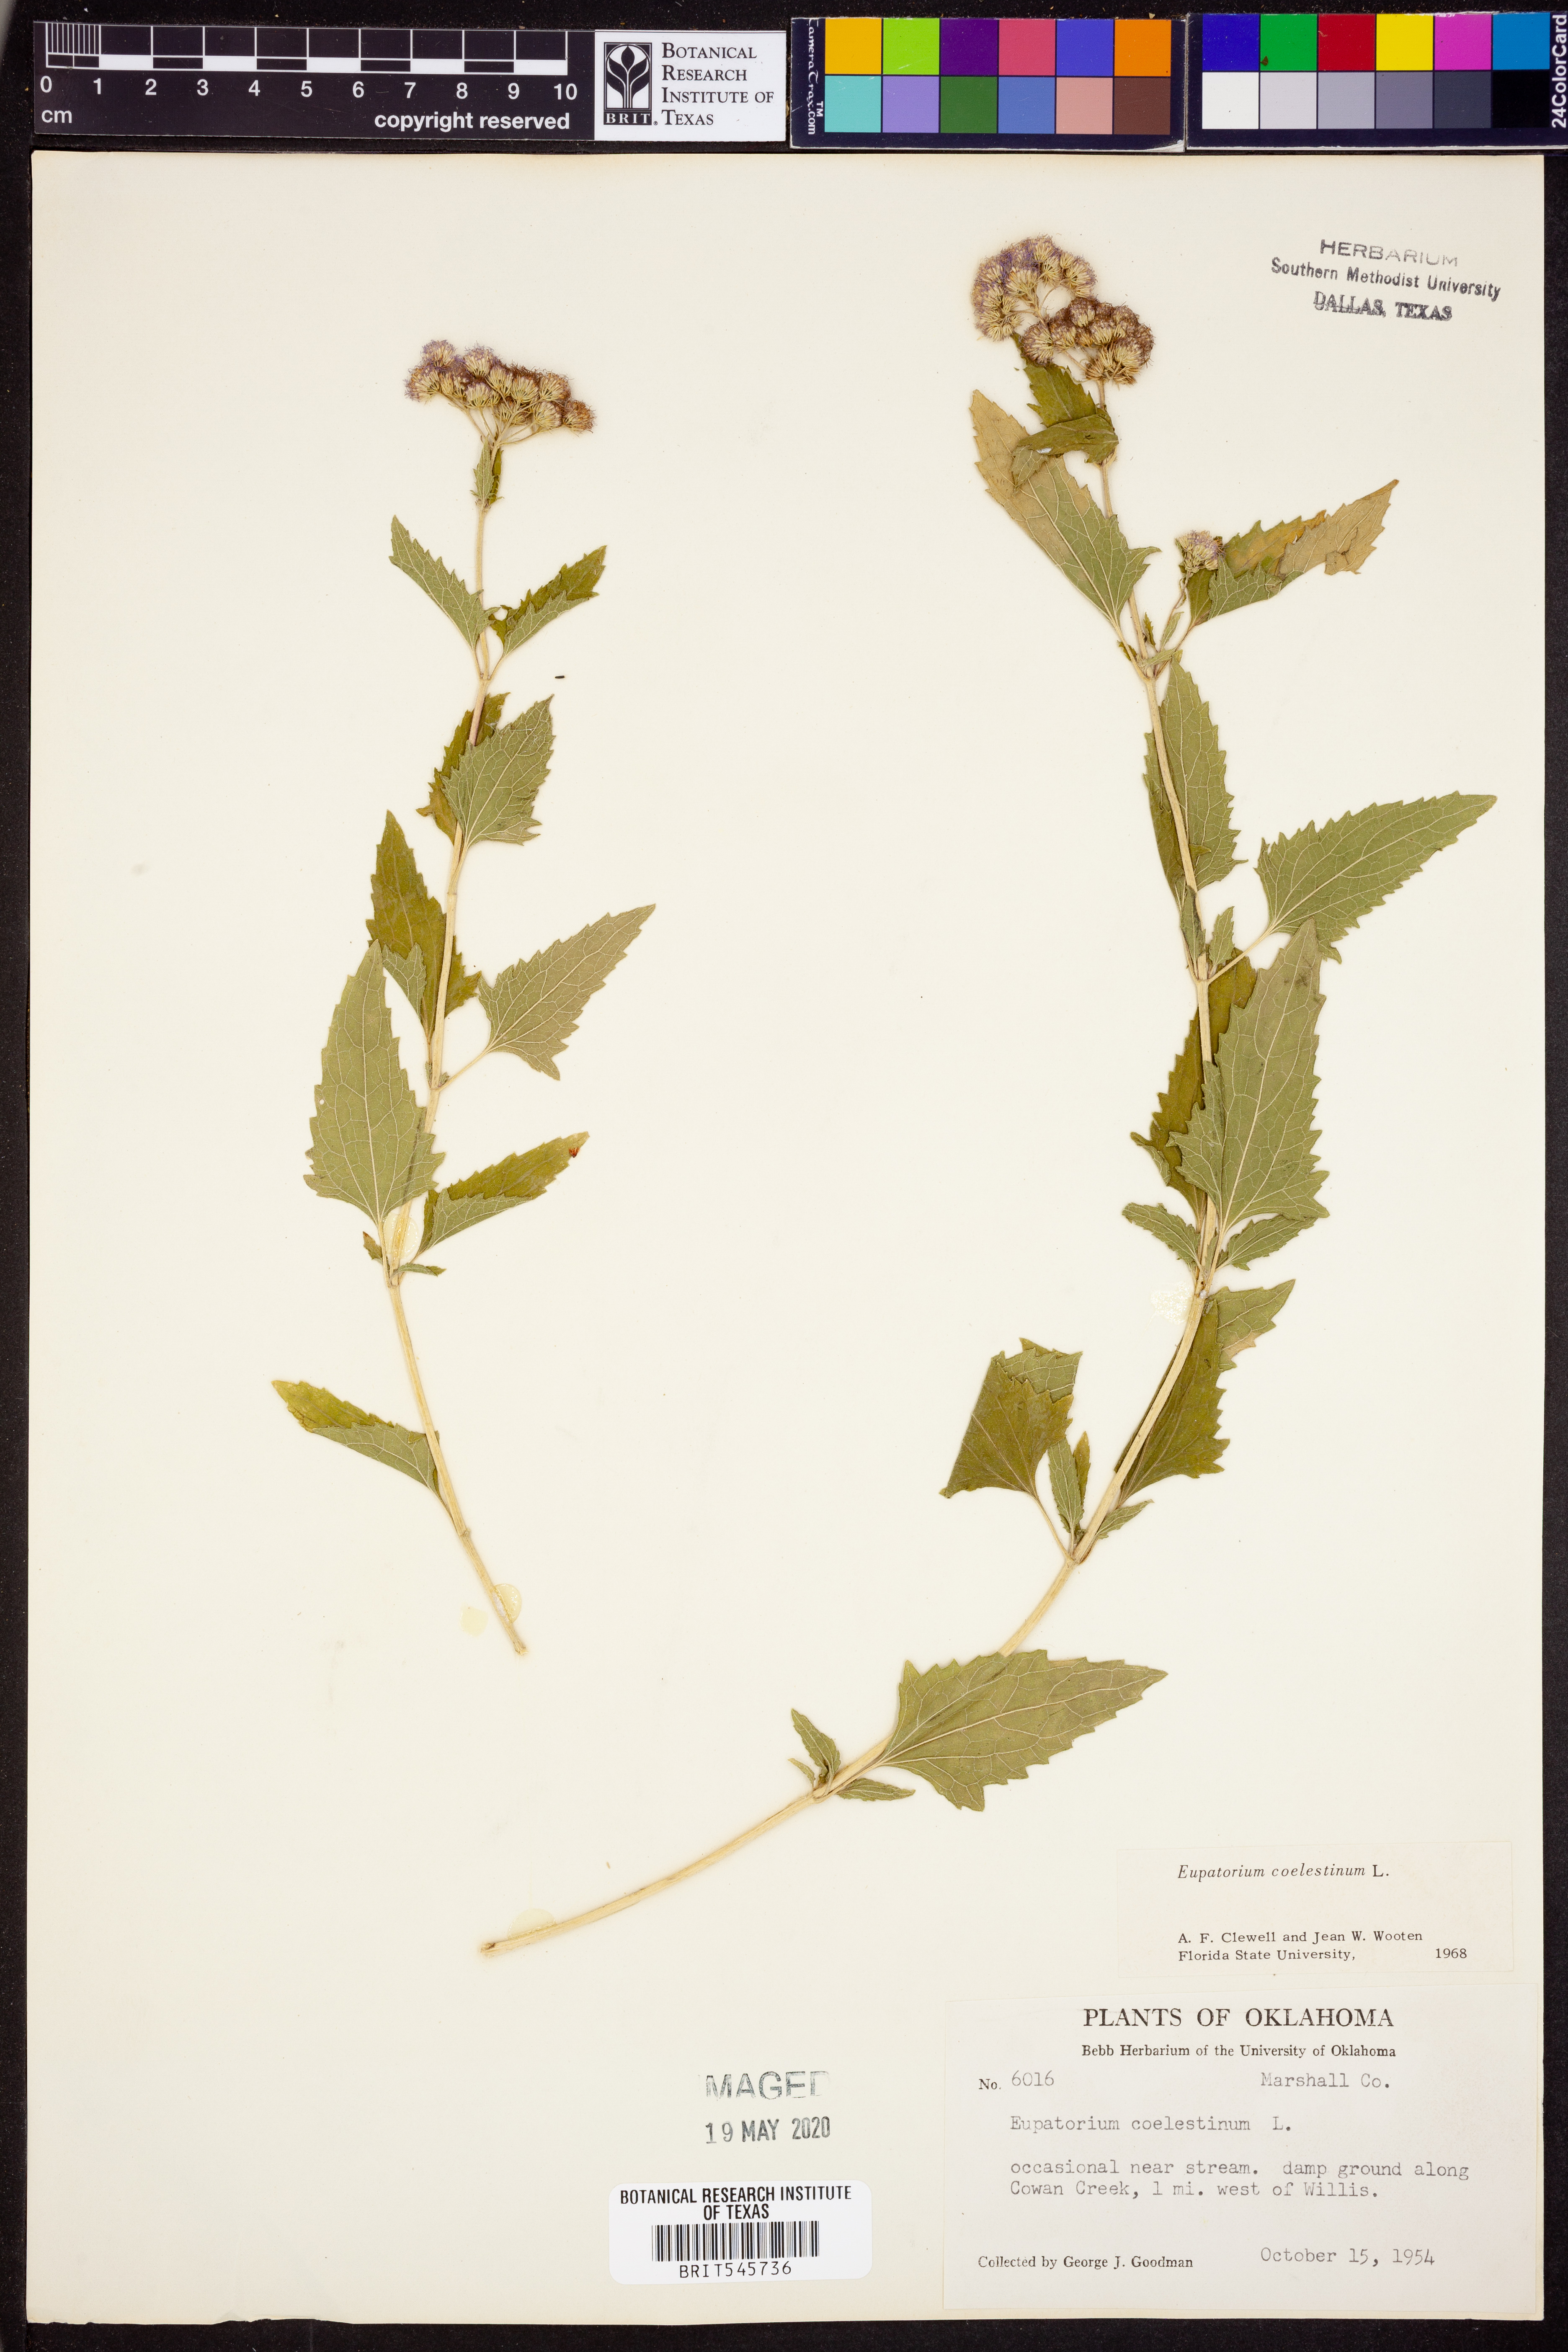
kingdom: Plantae
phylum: Tracheophyta
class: Magnoliopsida
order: Asterales
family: Asteraceae
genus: Conoclinium
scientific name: Conoclinium coelestinum
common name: Blue mistflower
